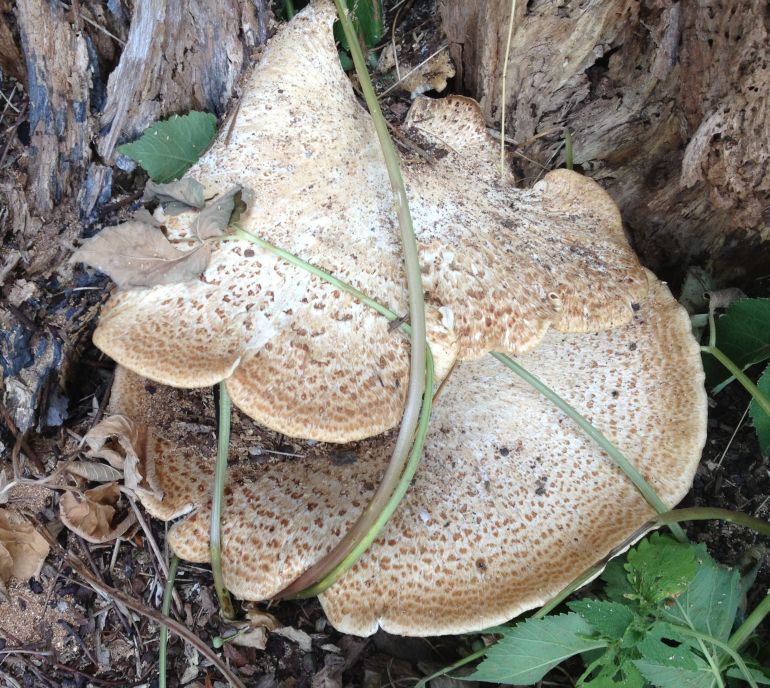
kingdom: Fungi
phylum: Basidiomycota
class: Agaricomycetes
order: Polyporales
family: Polyporaceae
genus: Cerioporus
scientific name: Cerioporus squamosus
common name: skællet stilkporesvamp
